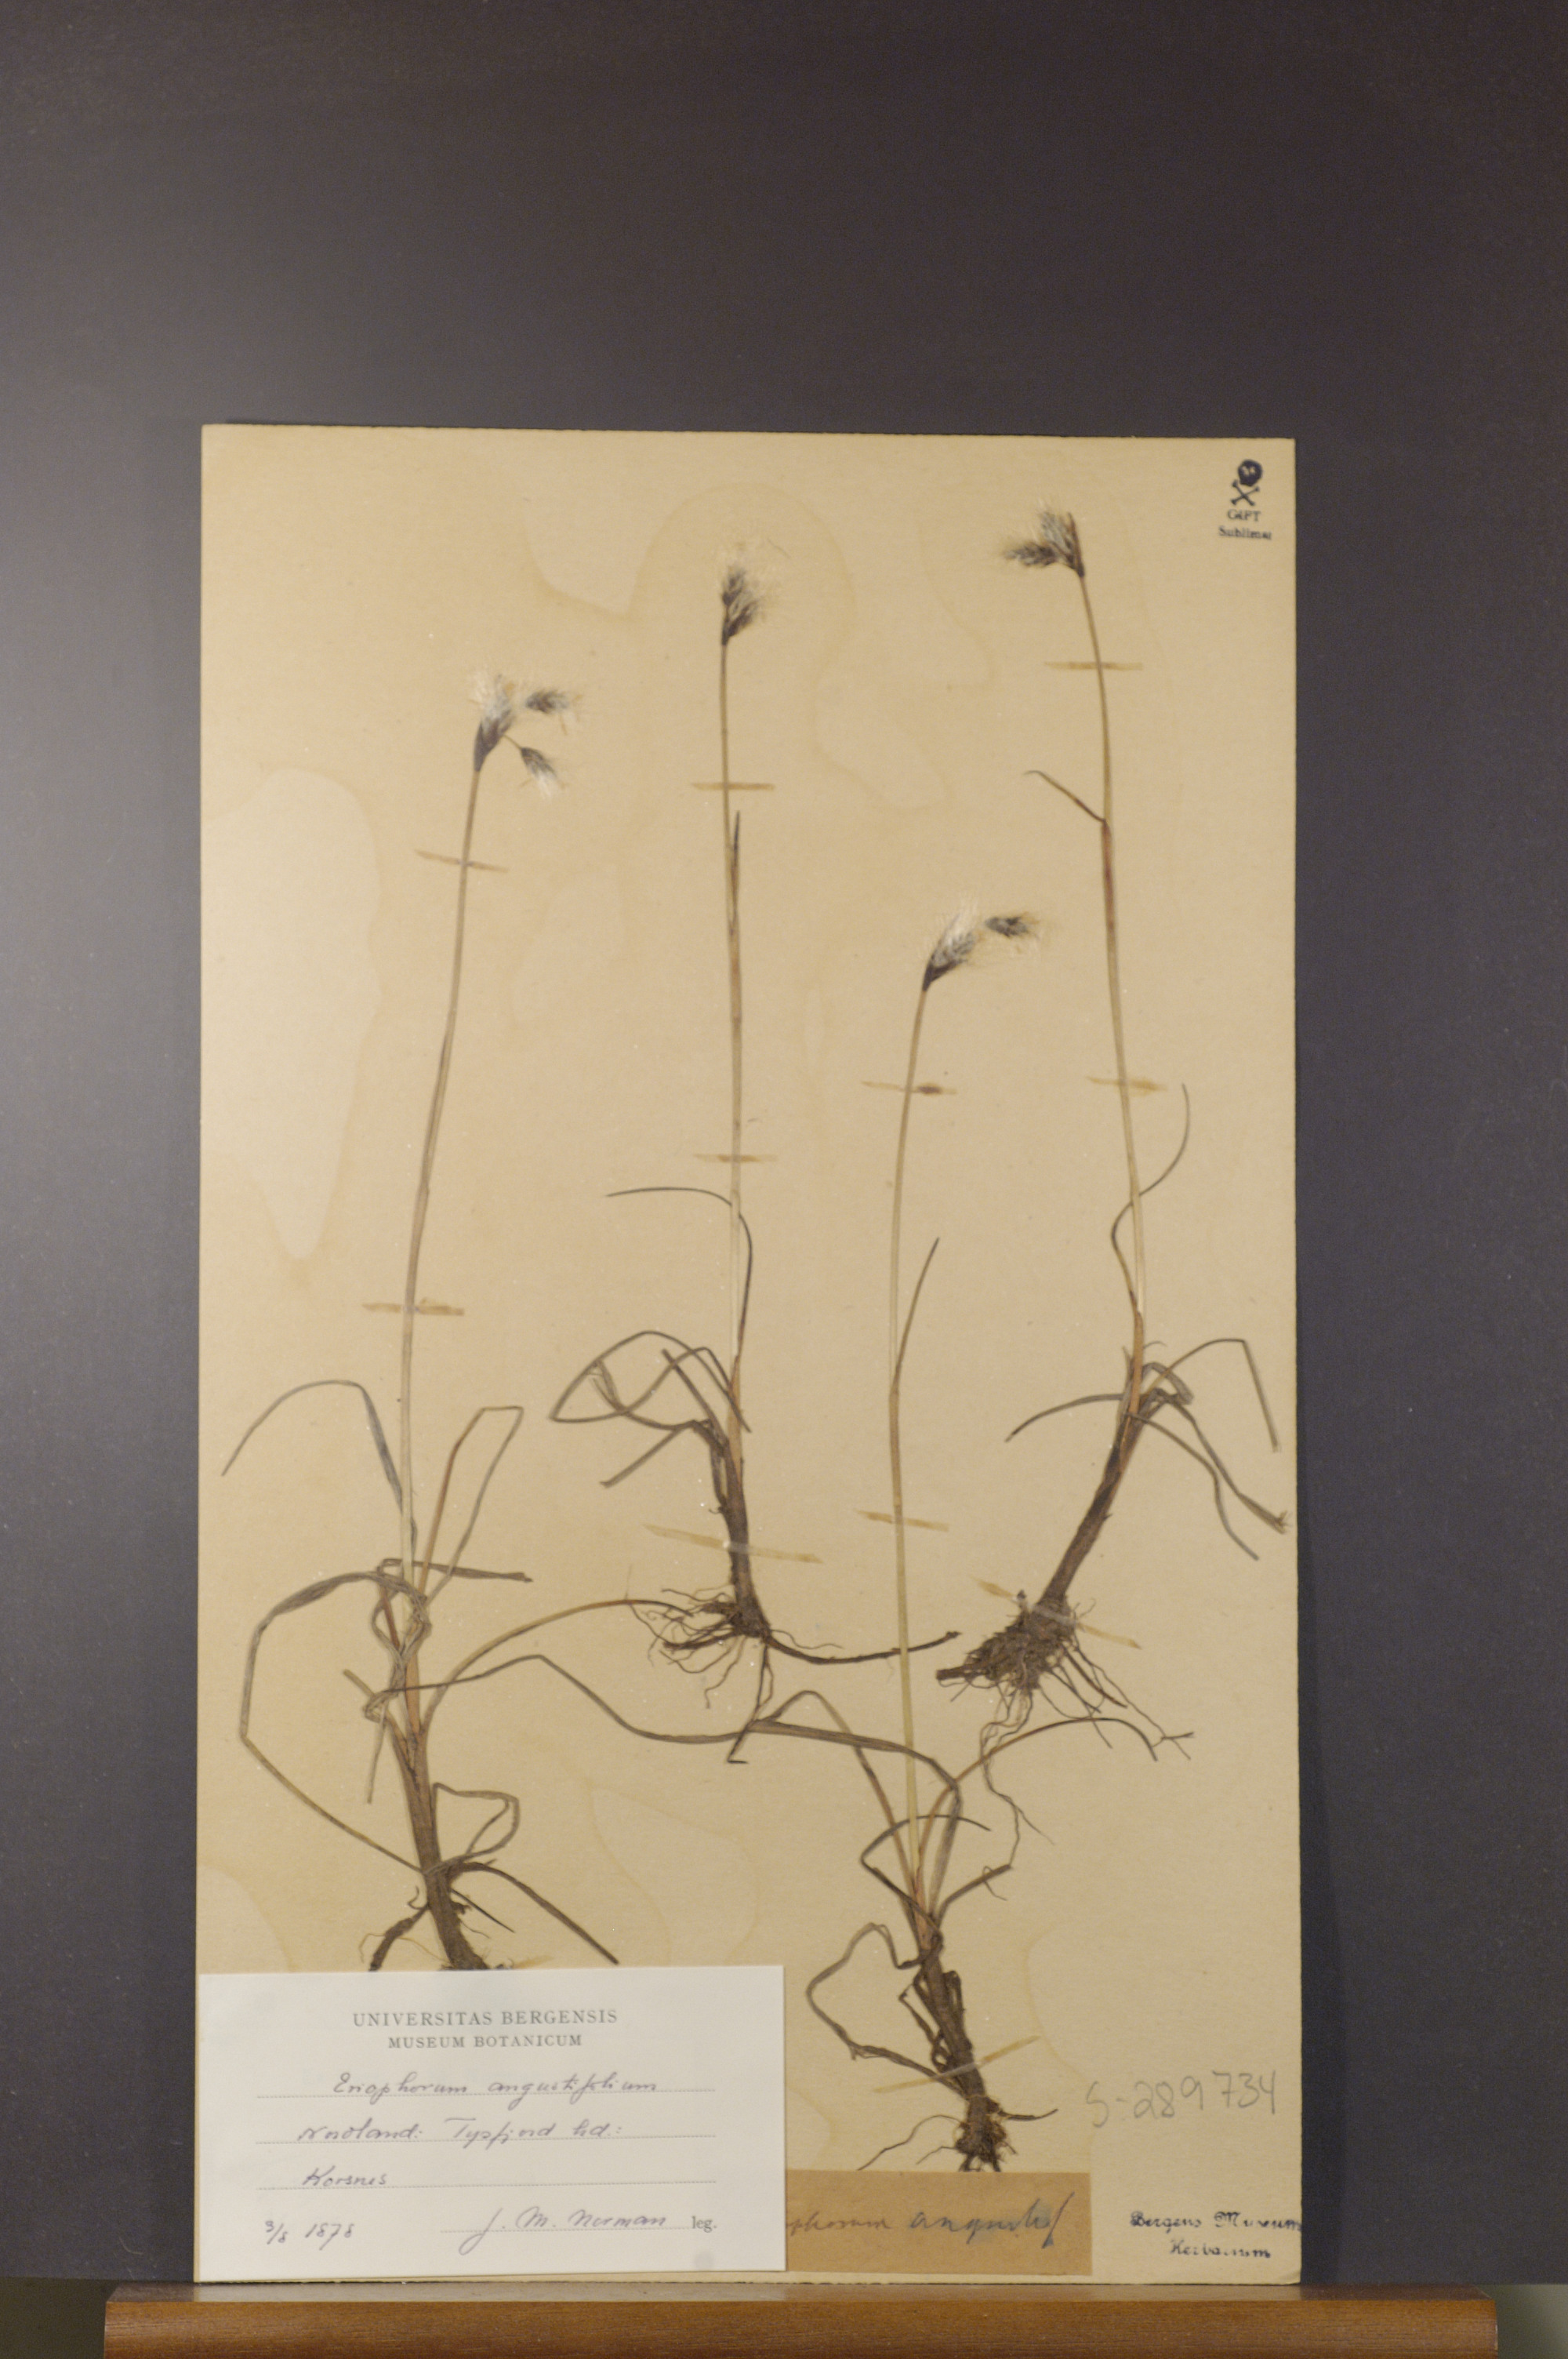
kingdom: Plantae
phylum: Tracheophyta
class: Liliopsida
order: Poales
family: Cyperaceae
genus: Eriophorum
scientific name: Eriophorum angustifolium
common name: Common cottongrass
